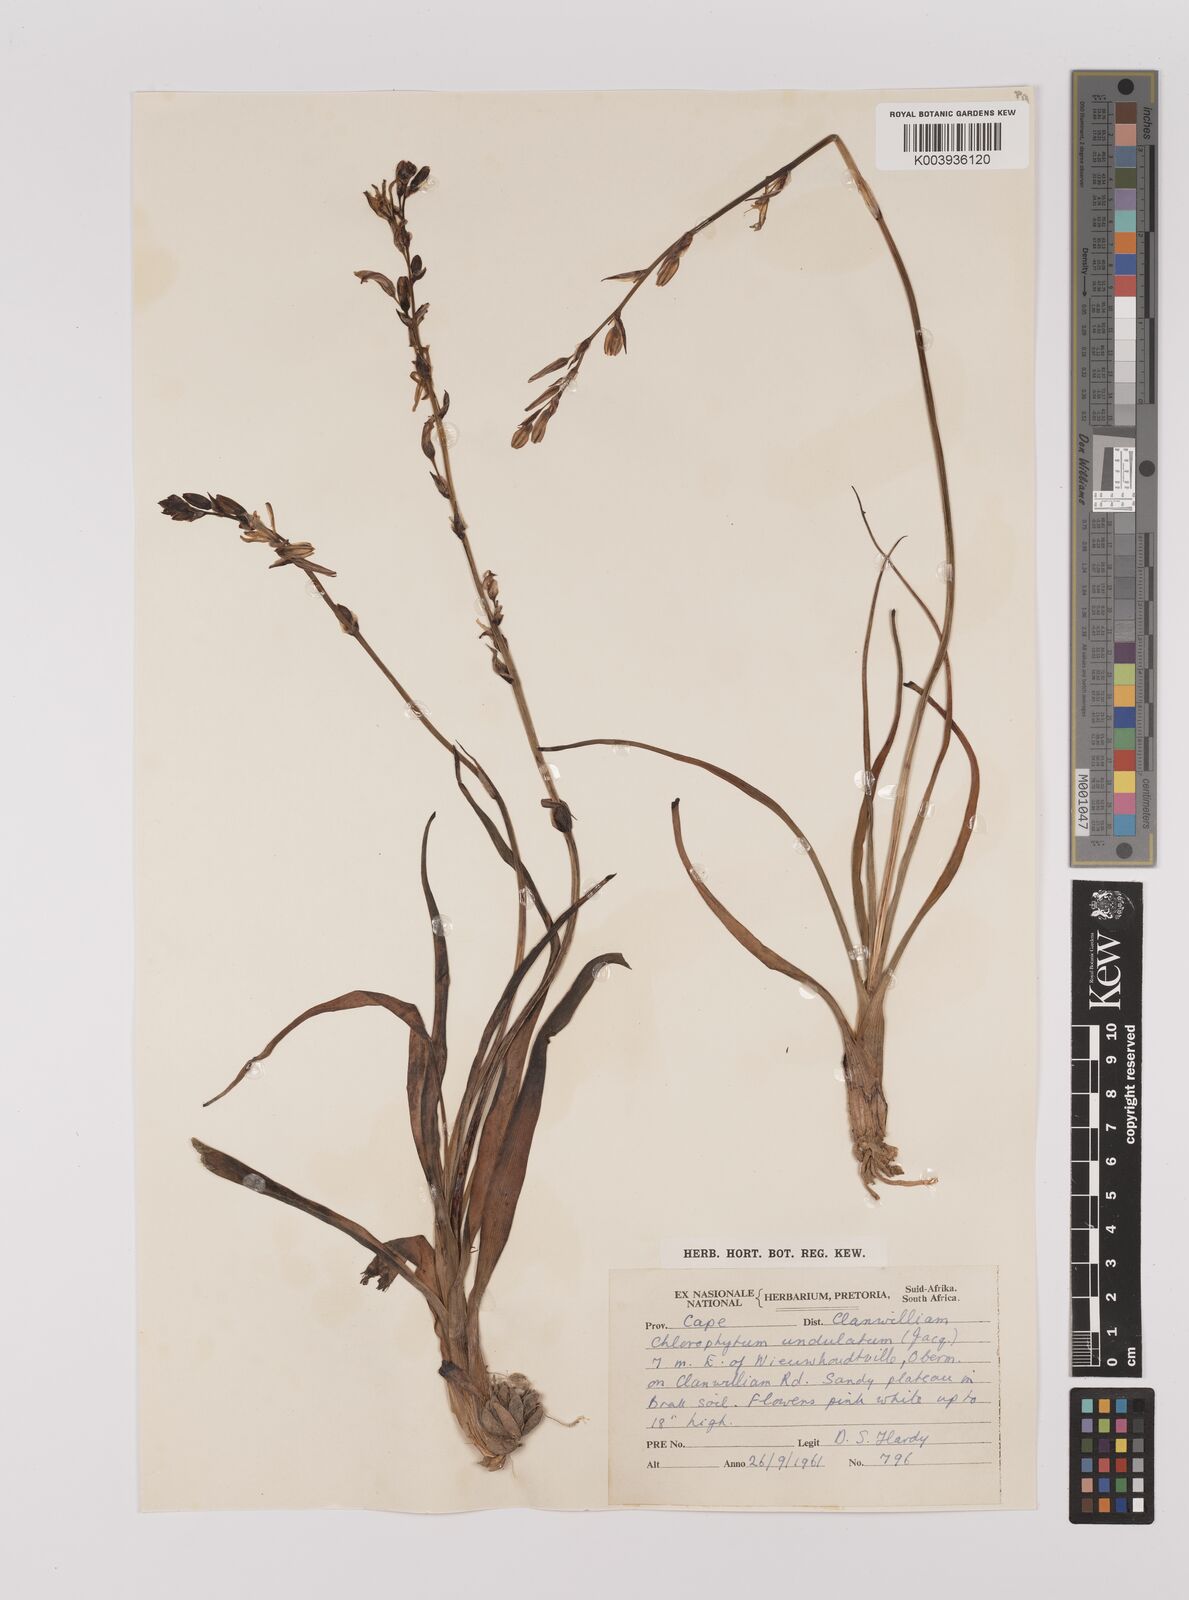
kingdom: Plantae
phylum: Tracheophyta
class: Liliopsida
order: Asparagales
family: Asparagaceae
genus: Chlorophytum
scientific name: Chlorophytum graminifolium
